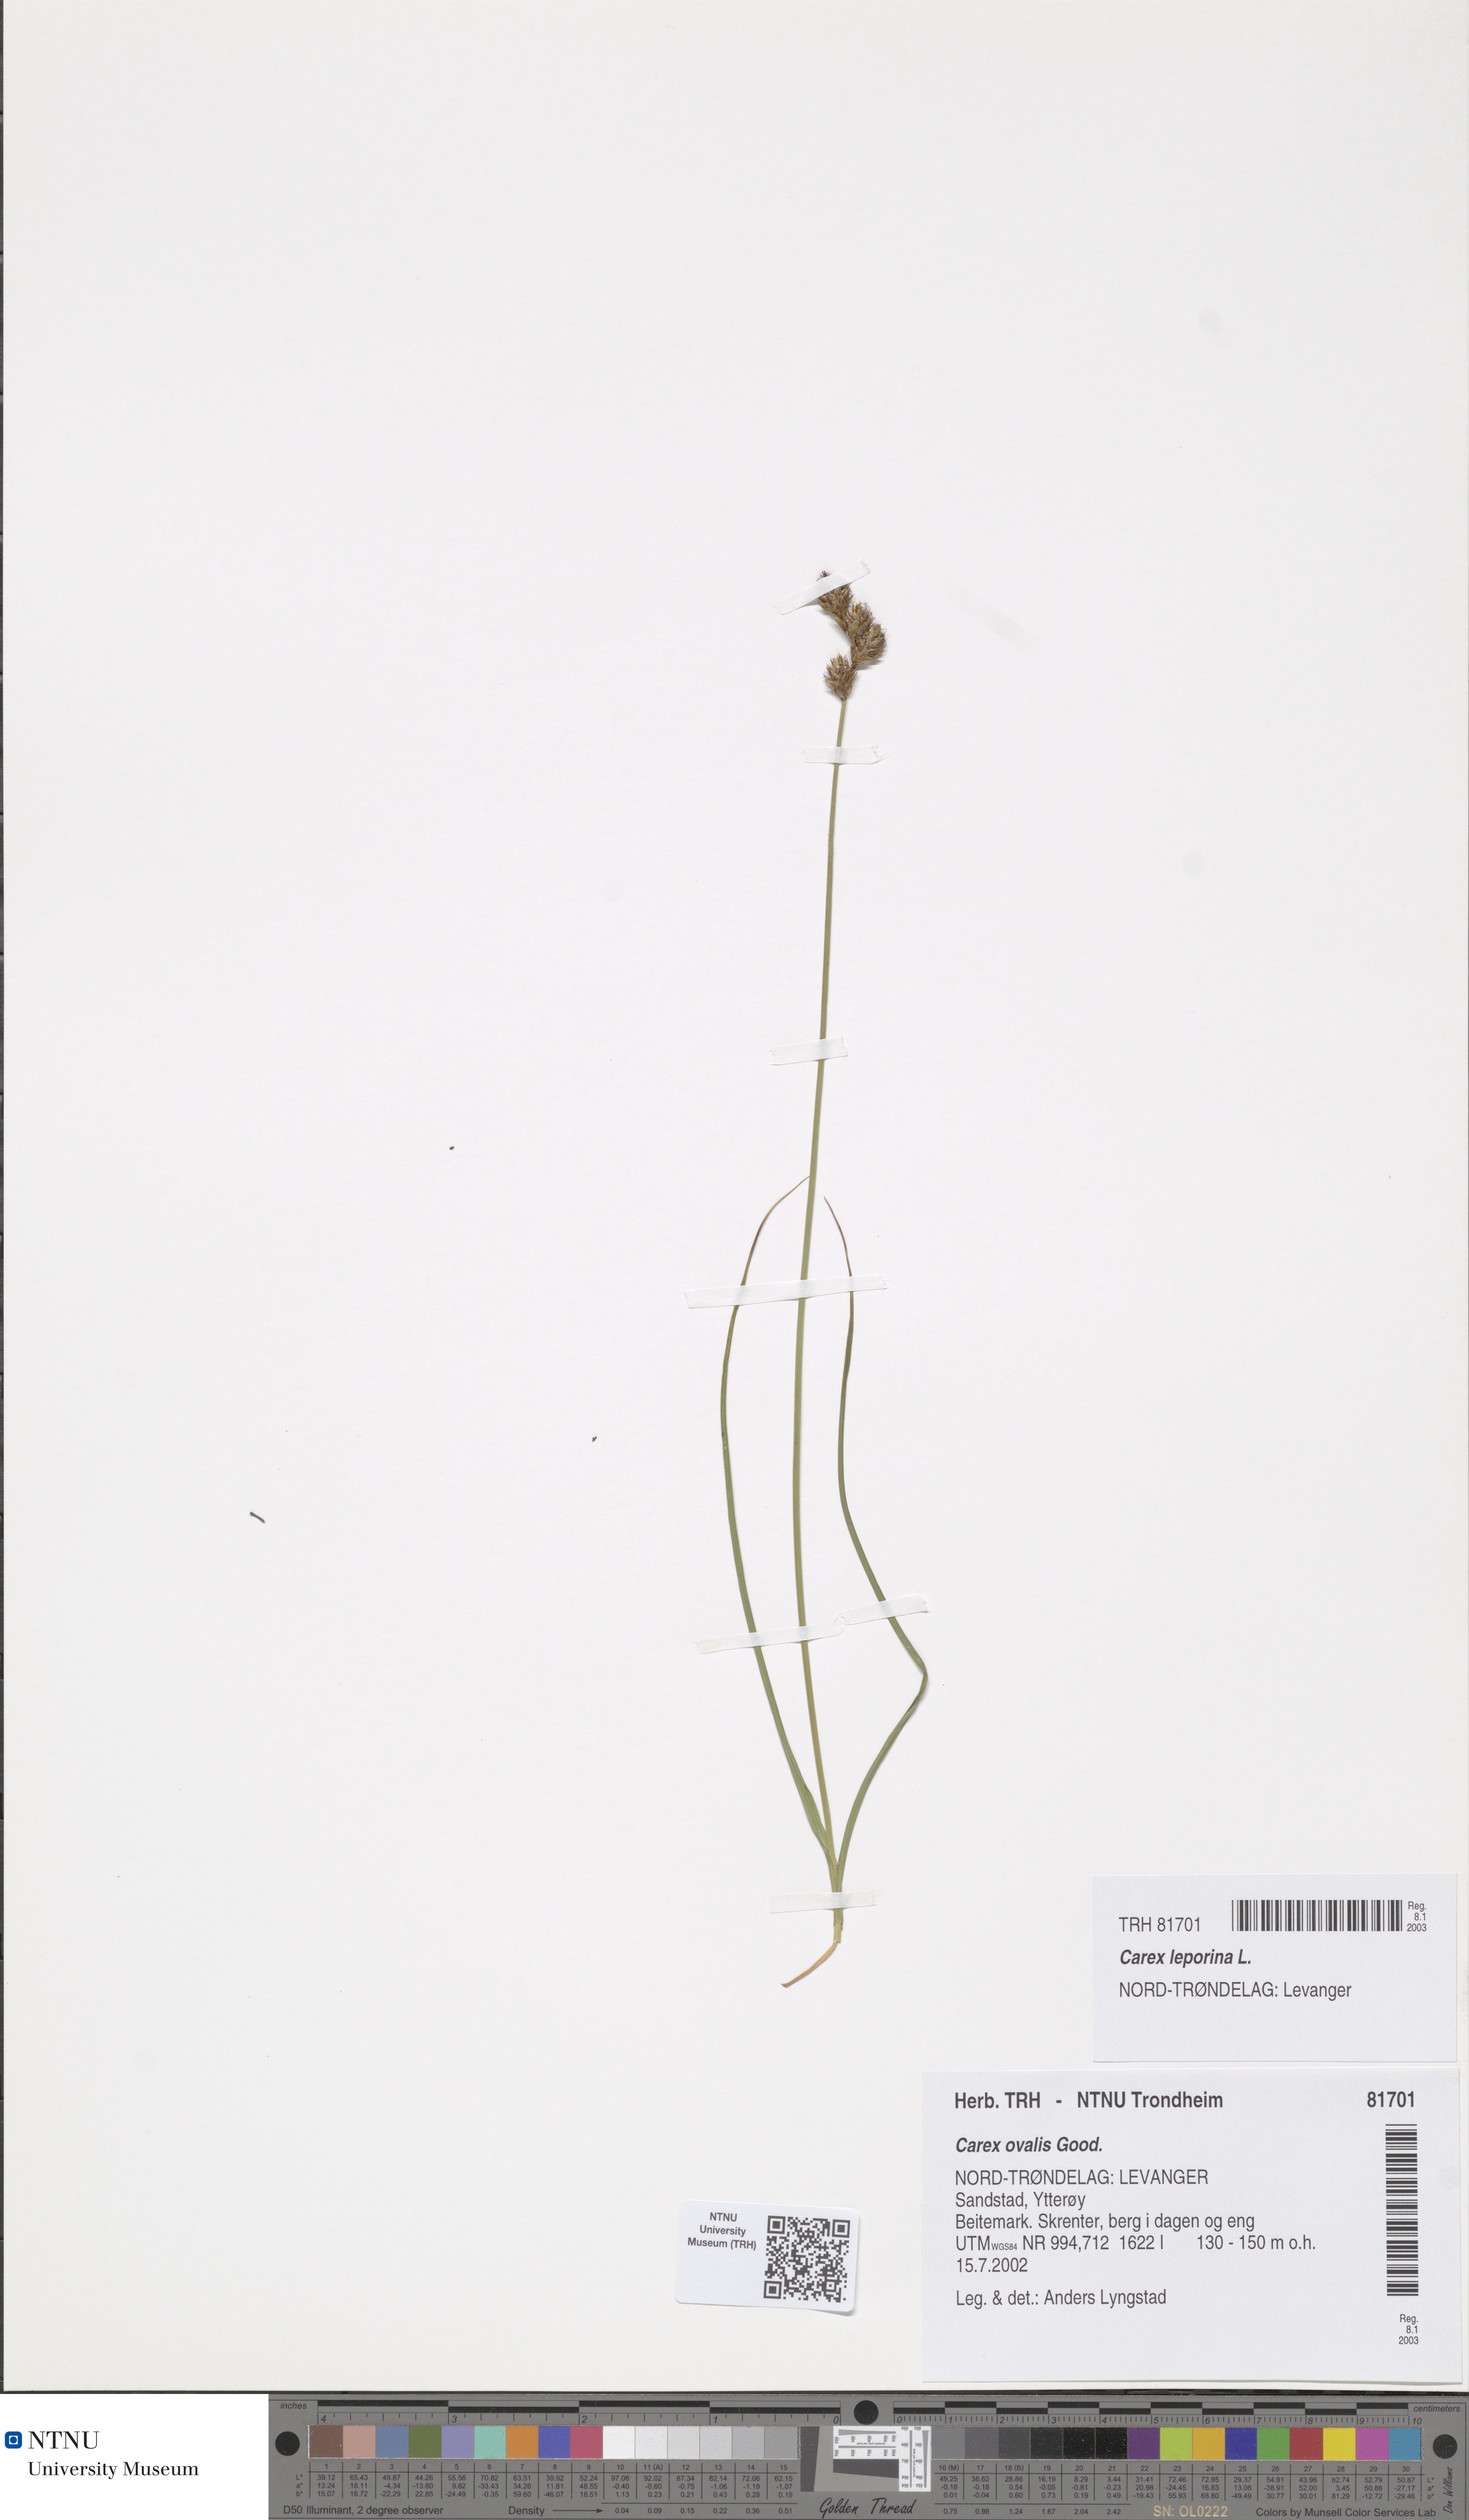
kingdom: Plantae
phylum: Tracheophyta
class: Liliopsida
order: Poales
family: Cyperaceae
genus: Carex
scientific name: Carex leporina
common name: Oval sedge
